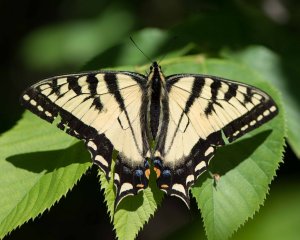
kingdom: Animalia
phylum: Arthropoda
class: Insecta
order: Lepidoptera
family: Papilionidae
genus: Pterourus
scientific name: Pterourus canadensis
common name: Canadian Tiger Swallowtail
